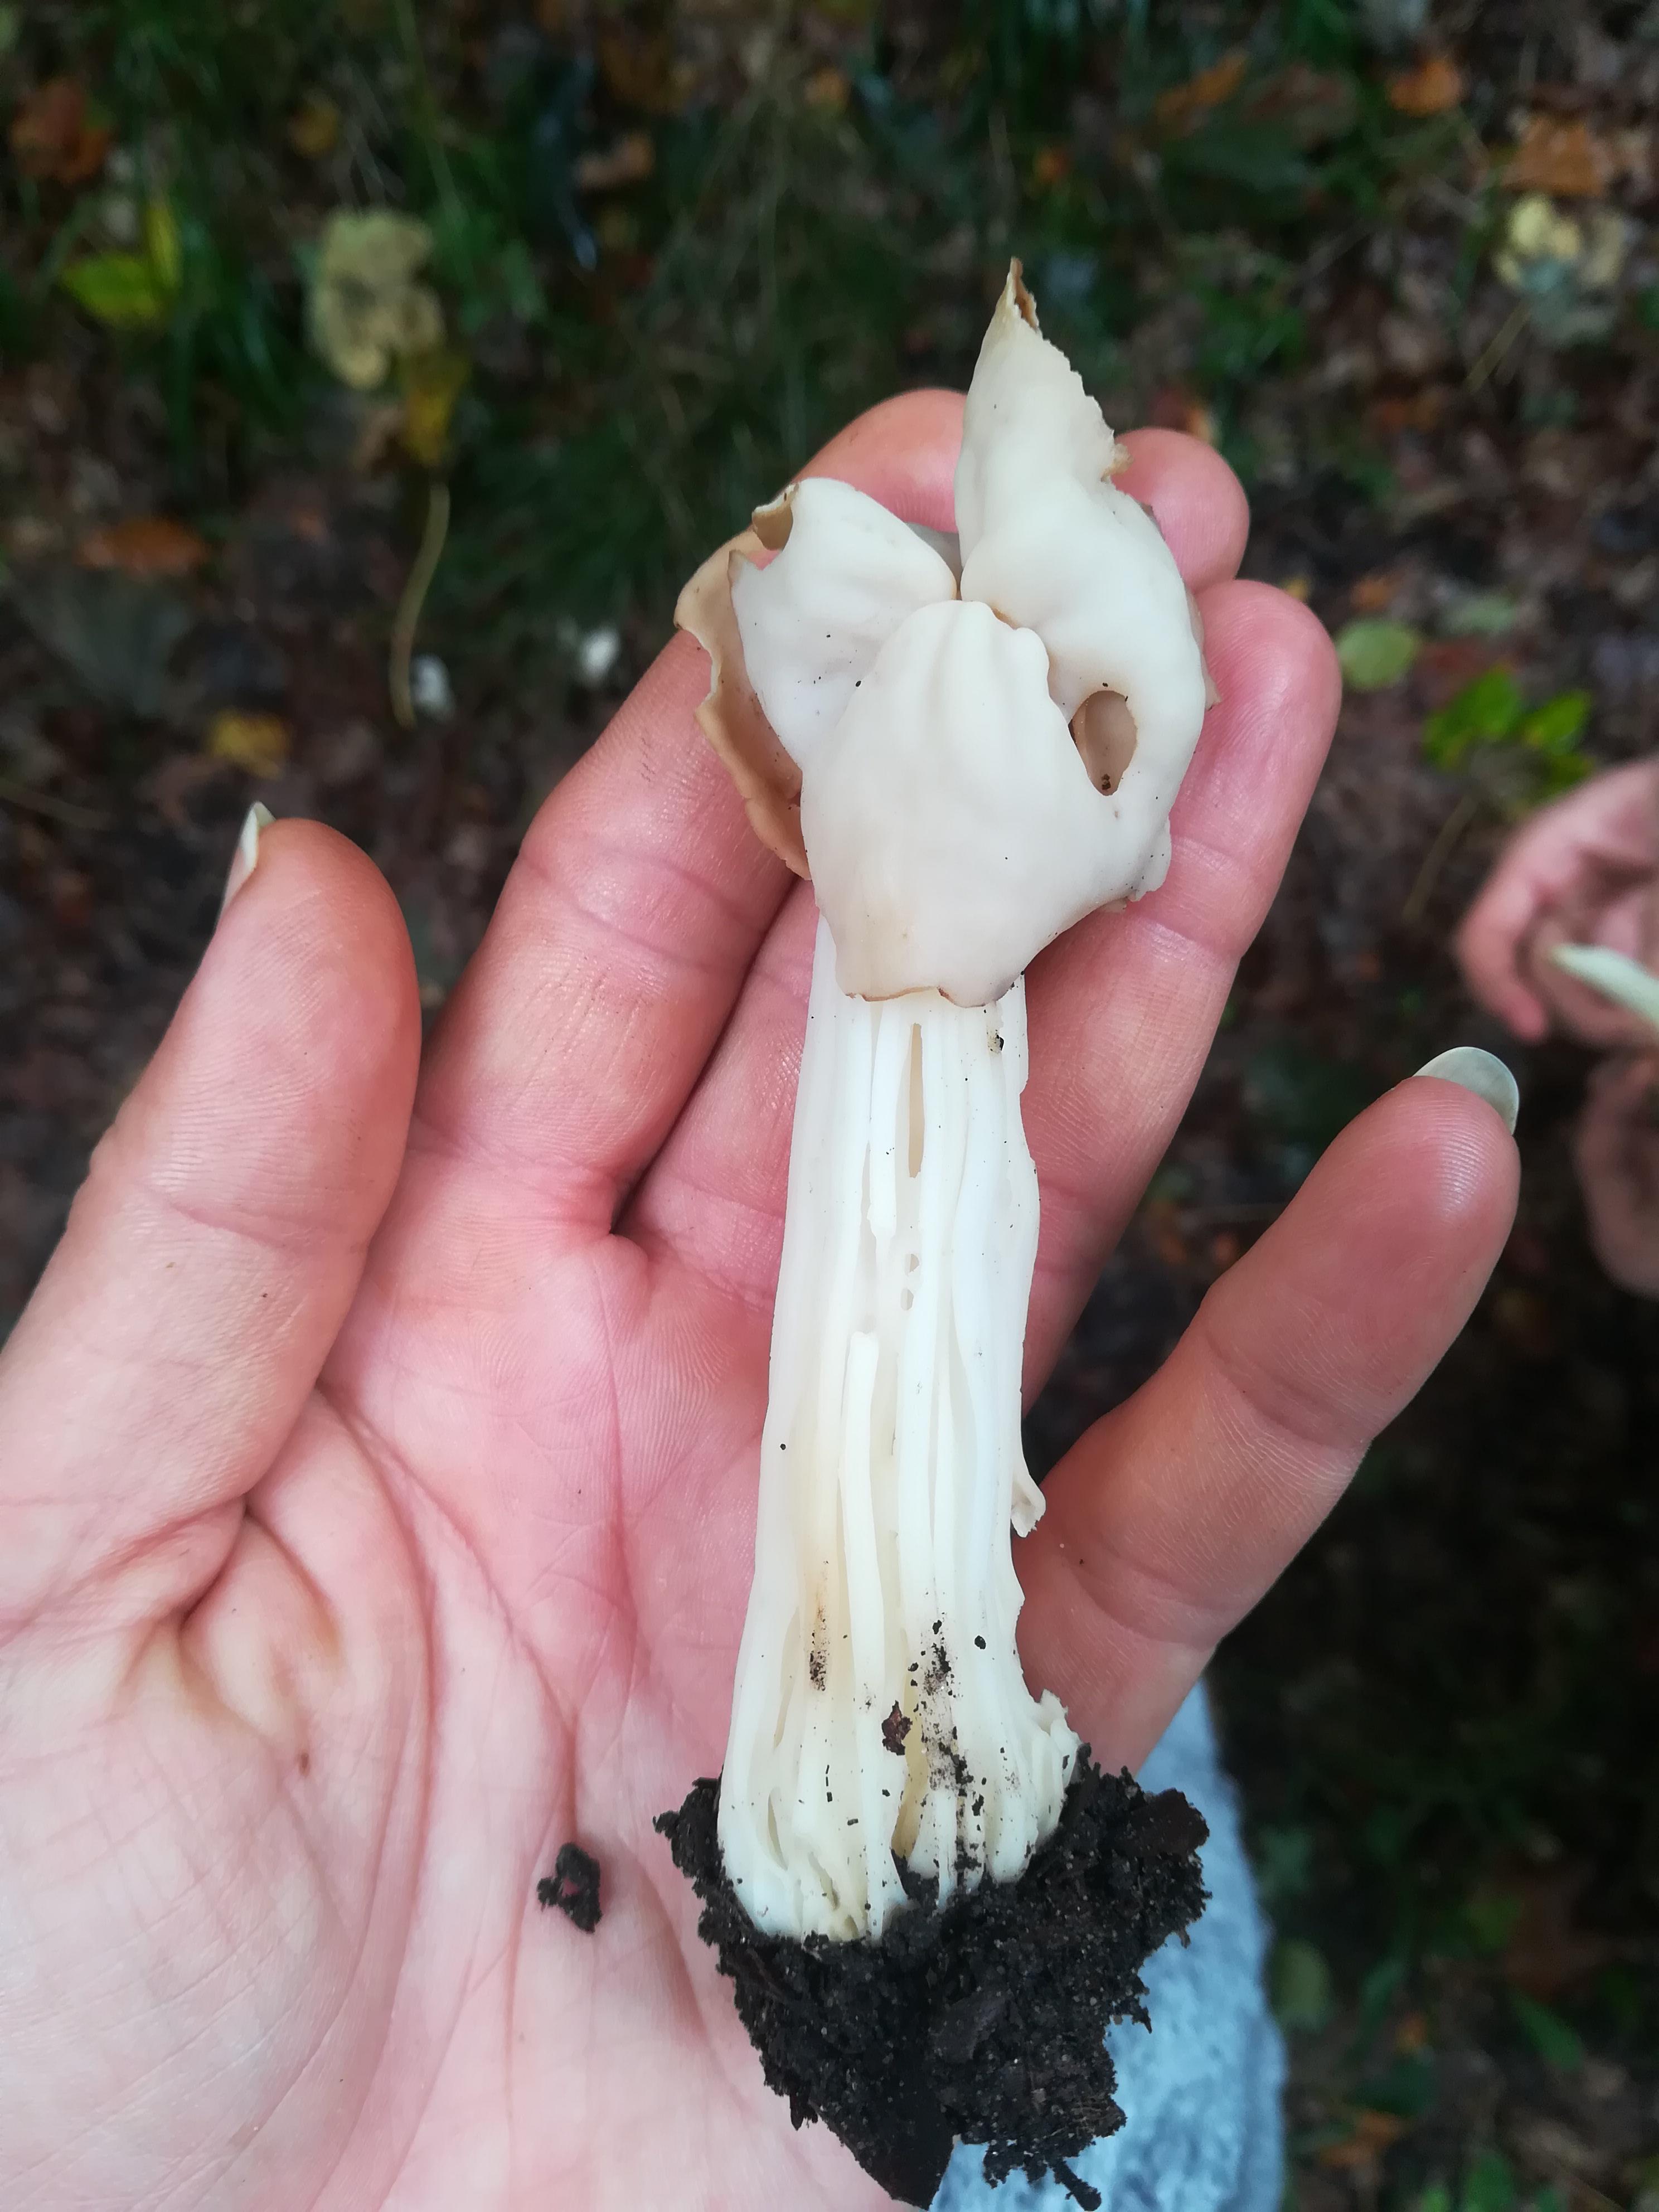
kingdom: Fungi
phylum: Ascomycota
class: Pezizomycetes
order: Pezizales
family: Helvellaceae
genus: Helvella
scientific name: Helvella crispa
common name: kruset foldhat
